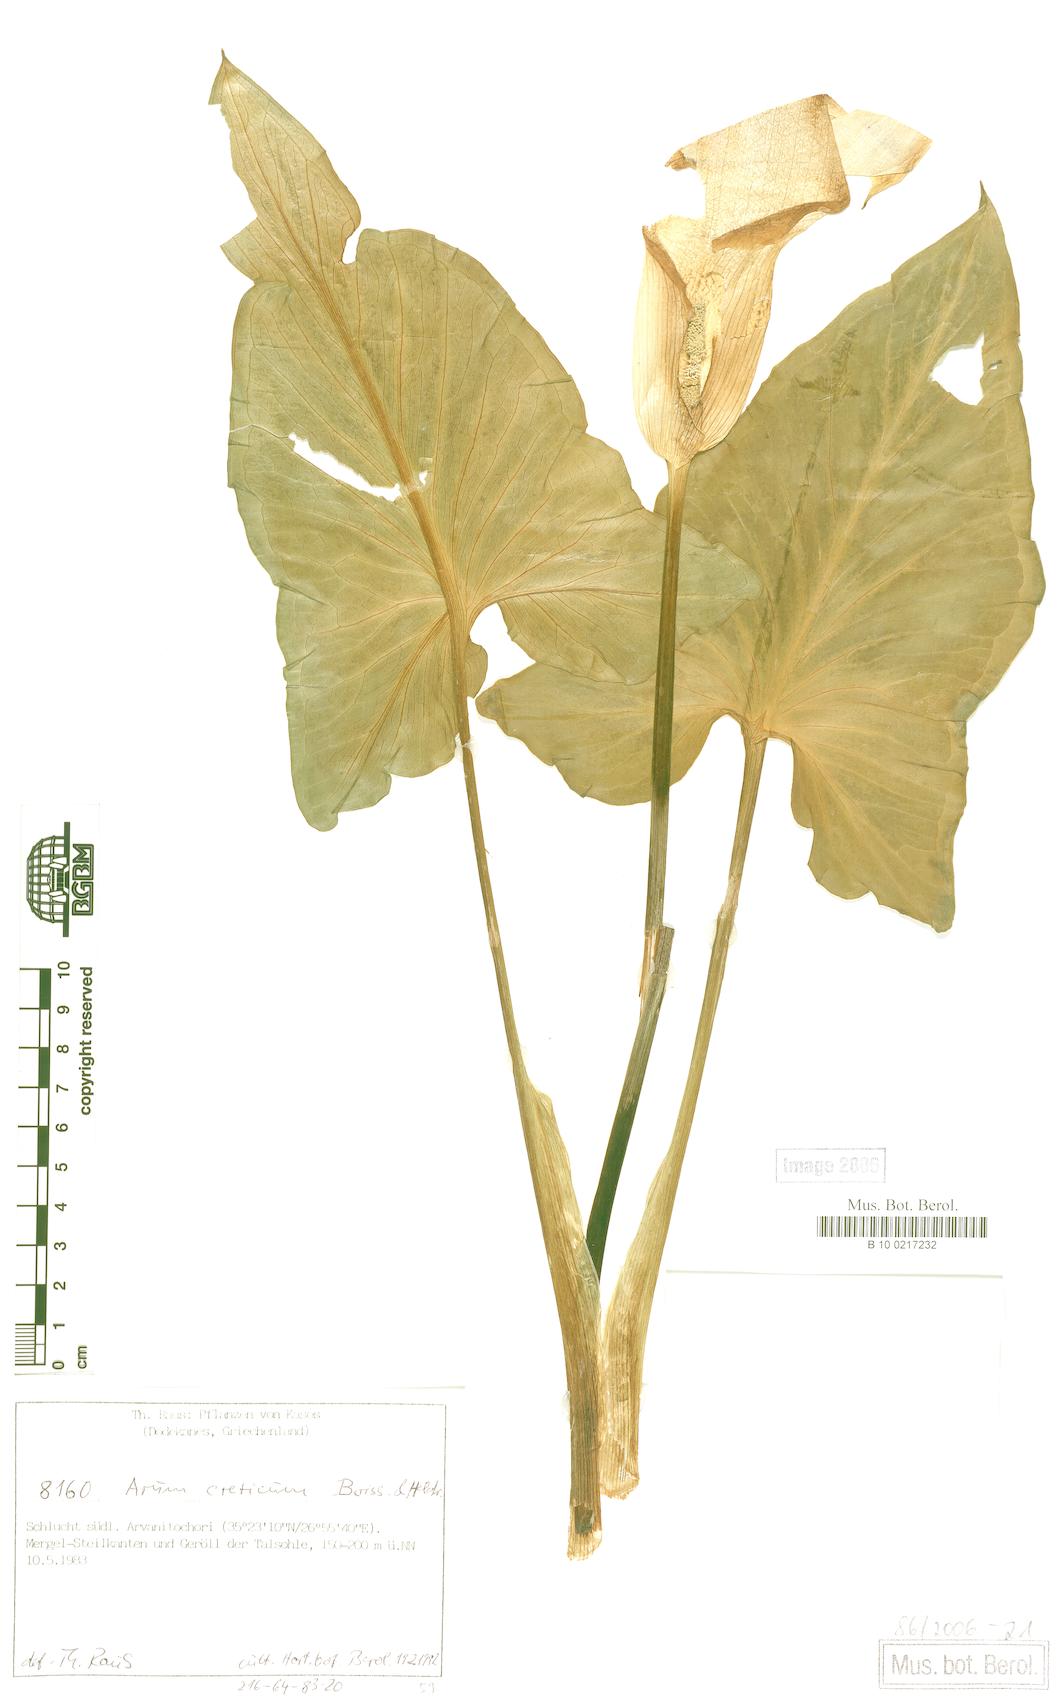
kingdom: Plantae
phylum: Tracheophyta
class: Liliopsida
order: Alismatales
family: Araceae
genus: Arum
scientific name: Arum creticum
